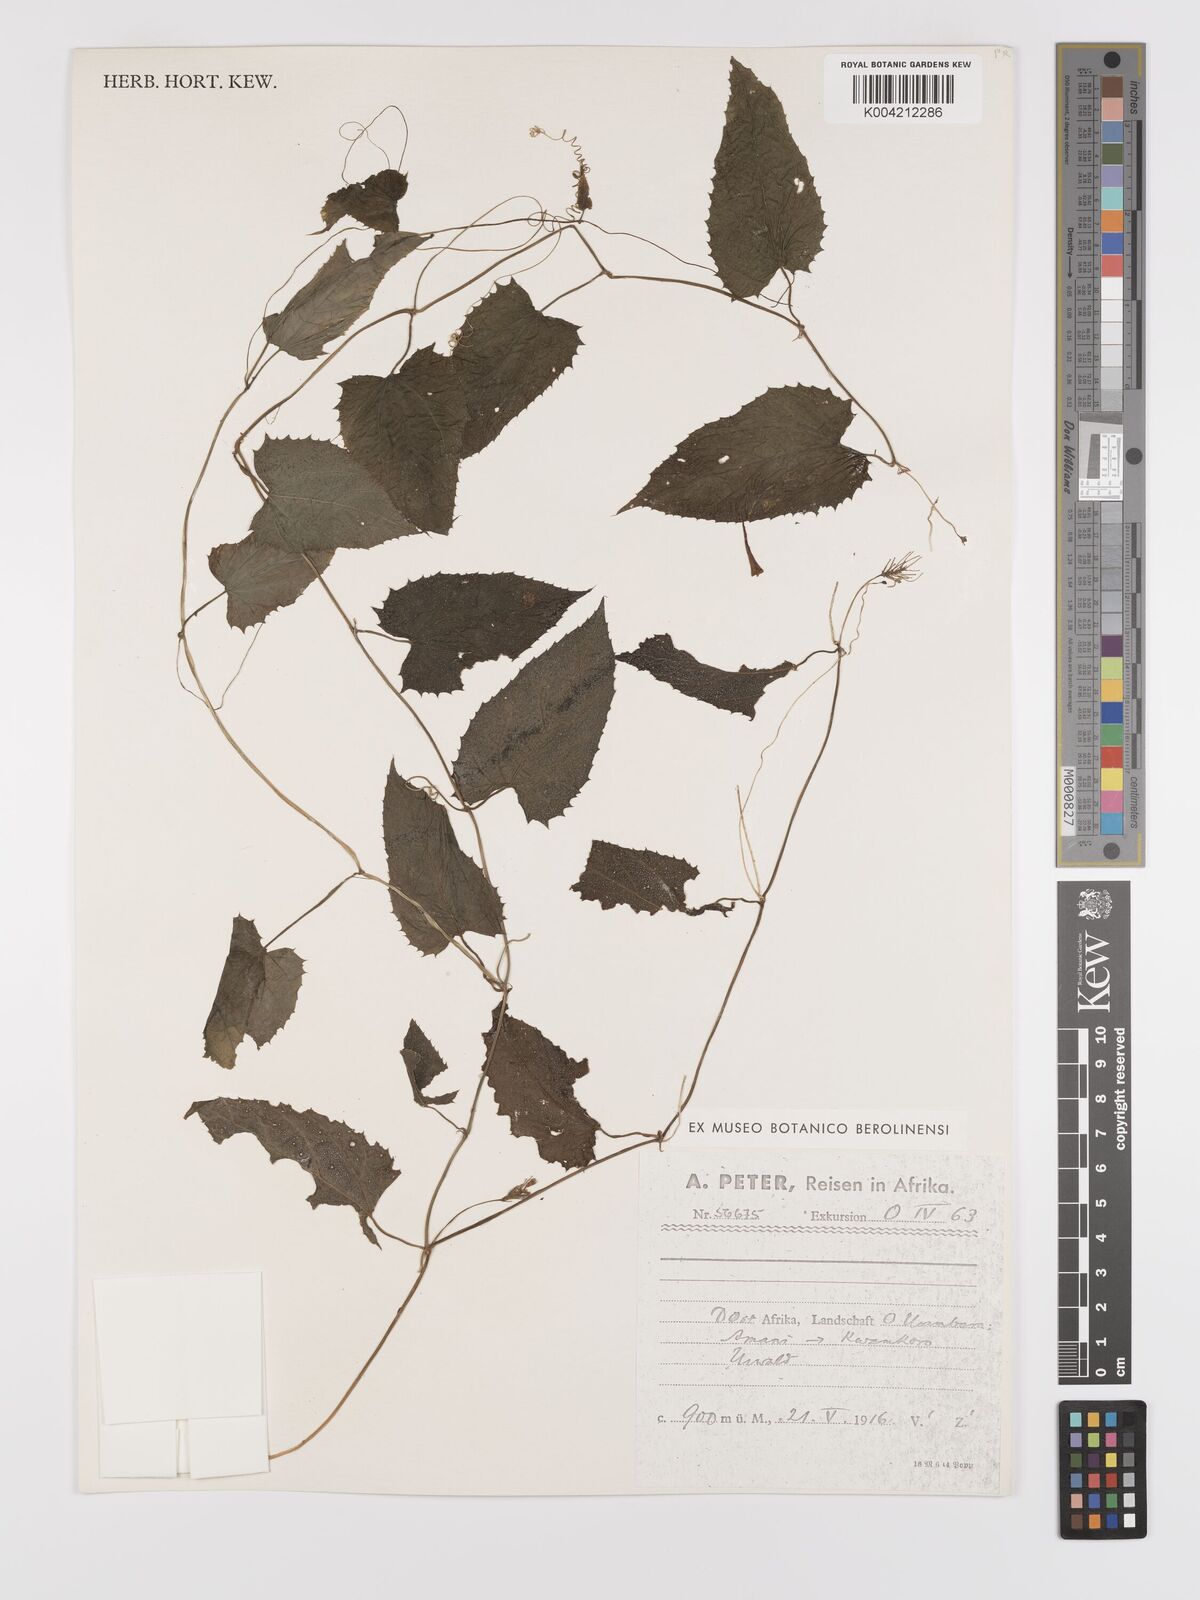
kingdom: Plantae
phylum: Tracheophyta
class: Magnoliopsida
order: Cucurbitales
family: Cucurbitaceae
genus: Kedrostis
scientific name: Kedrostis heterophylla
